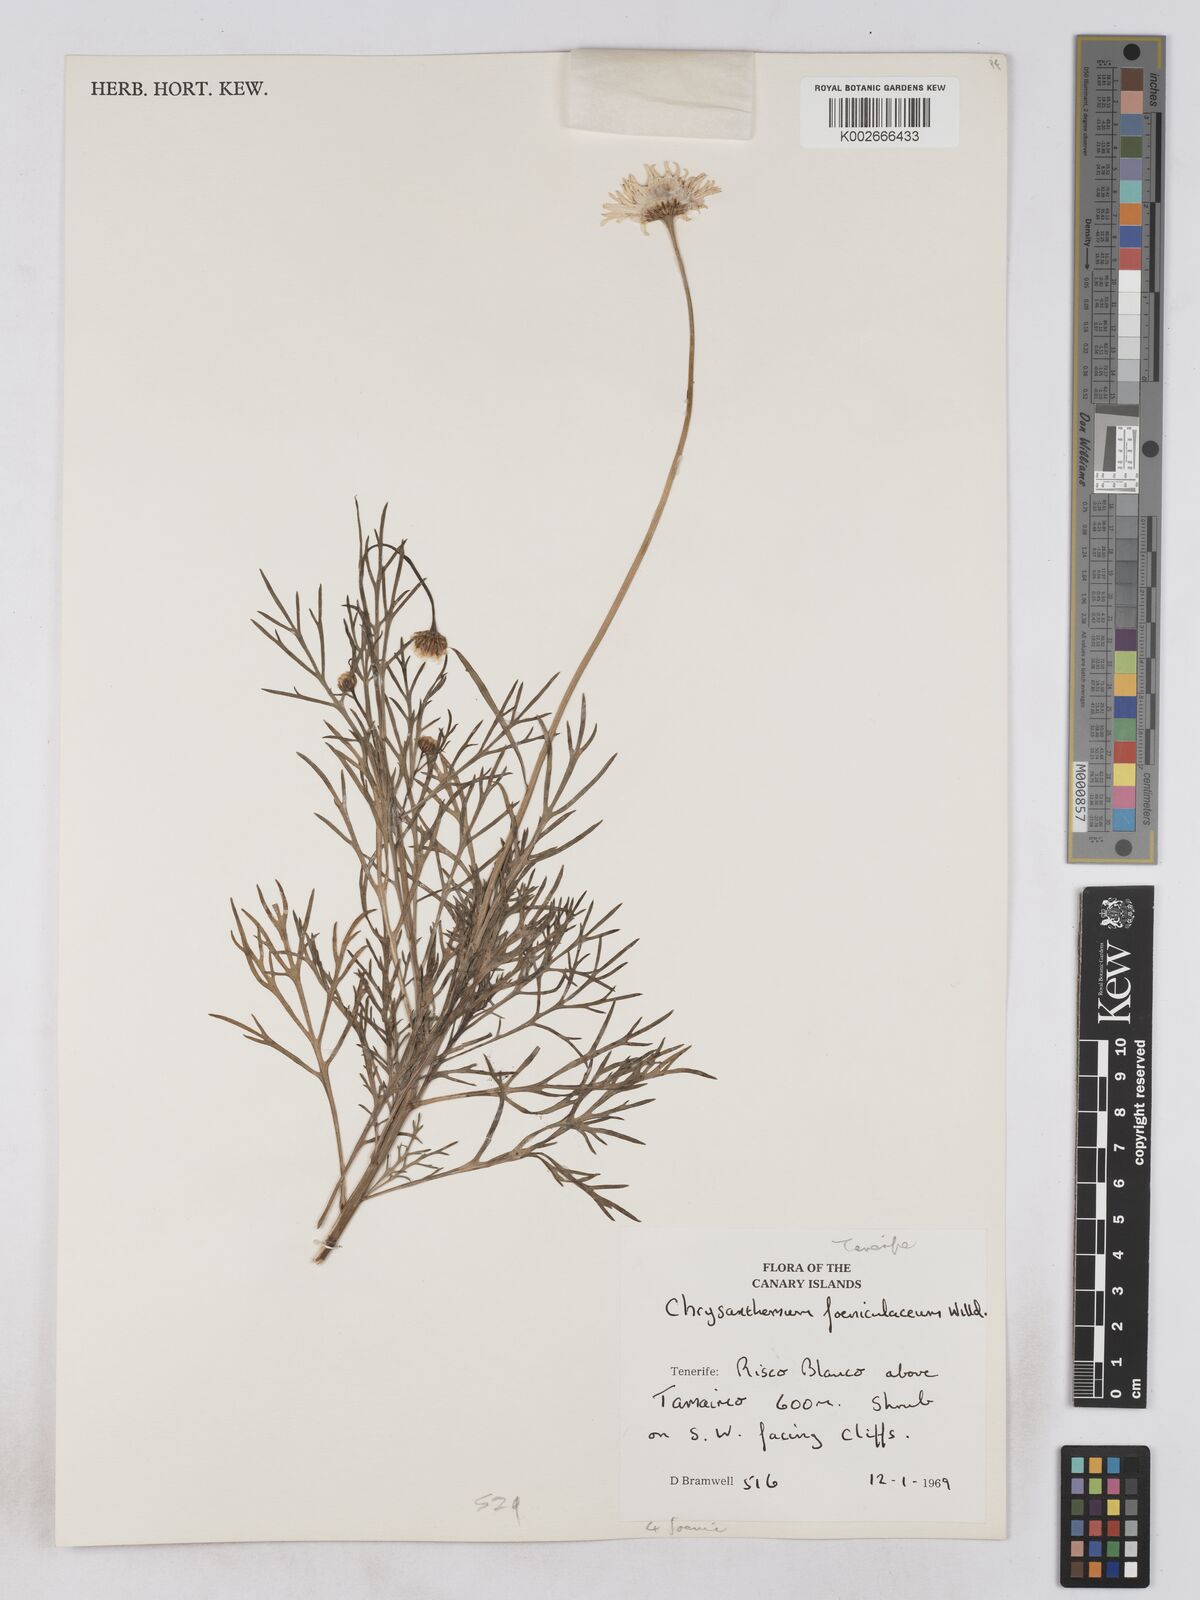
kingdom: Plantae
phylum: Tracheophyta
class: Magnoliopsida
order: Asterales
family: Asteraceae
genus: Argyranthemum
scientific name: Argyranthemum foeniculaceum
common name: Canary island marguerite
